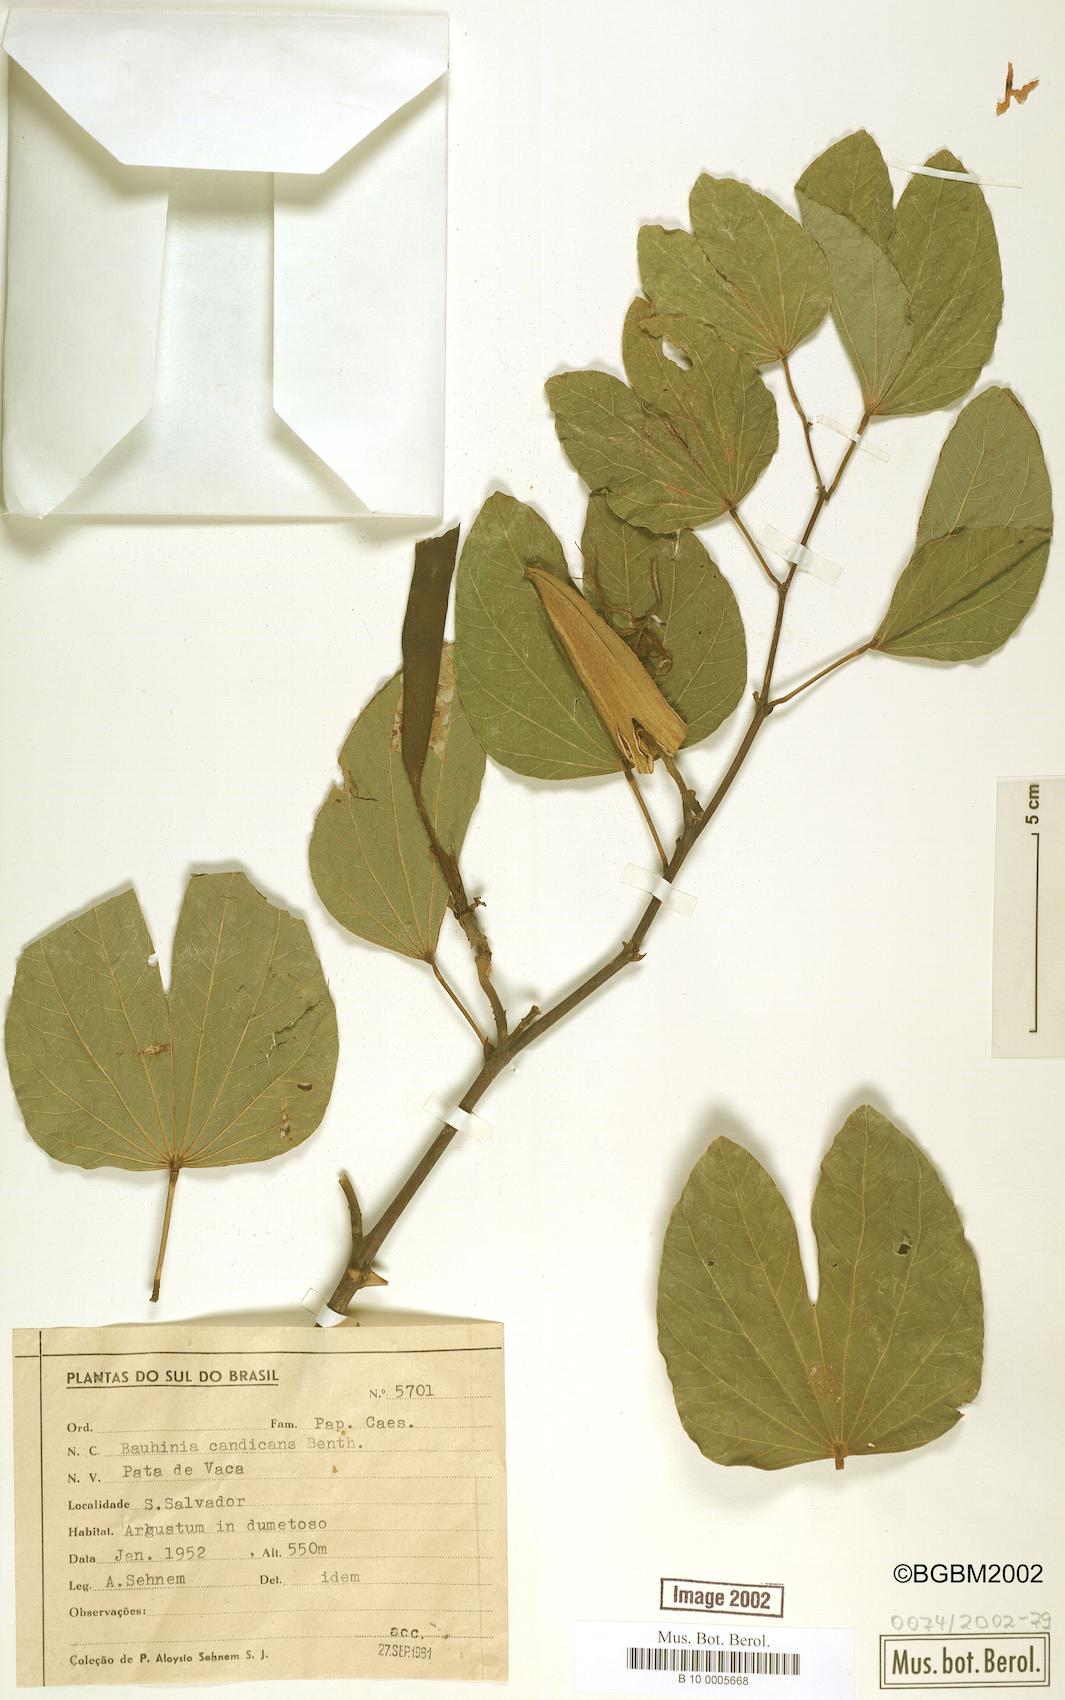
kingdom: Plantae
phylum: Tracheophyta
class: Magnoliopsida
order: Fabales
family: Fabaceae
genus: Bauhinia
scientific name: Bauhinia forficata
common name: Orchid tree
